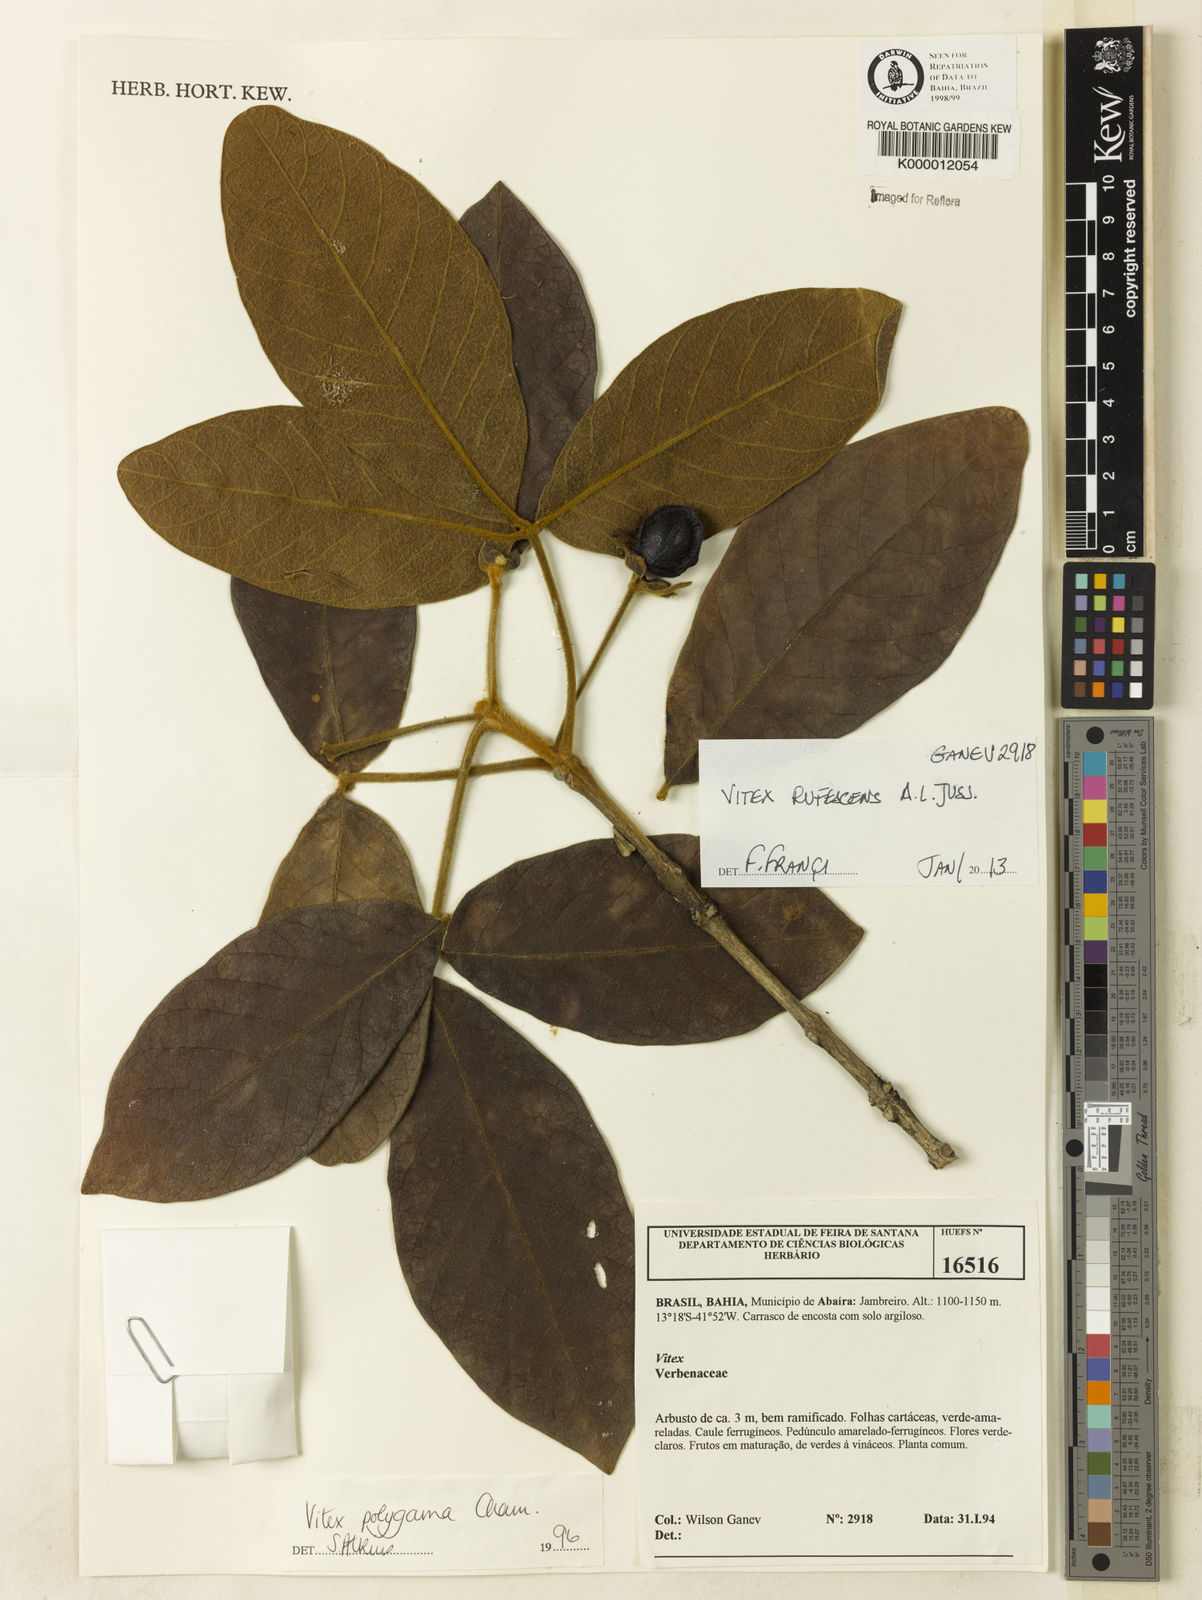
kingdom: Plantae
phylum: Tracheophyta
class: Magnoliopsida
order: Lamiales
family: Lamiaceae
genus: Vitex
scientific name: Vitex rufescens
